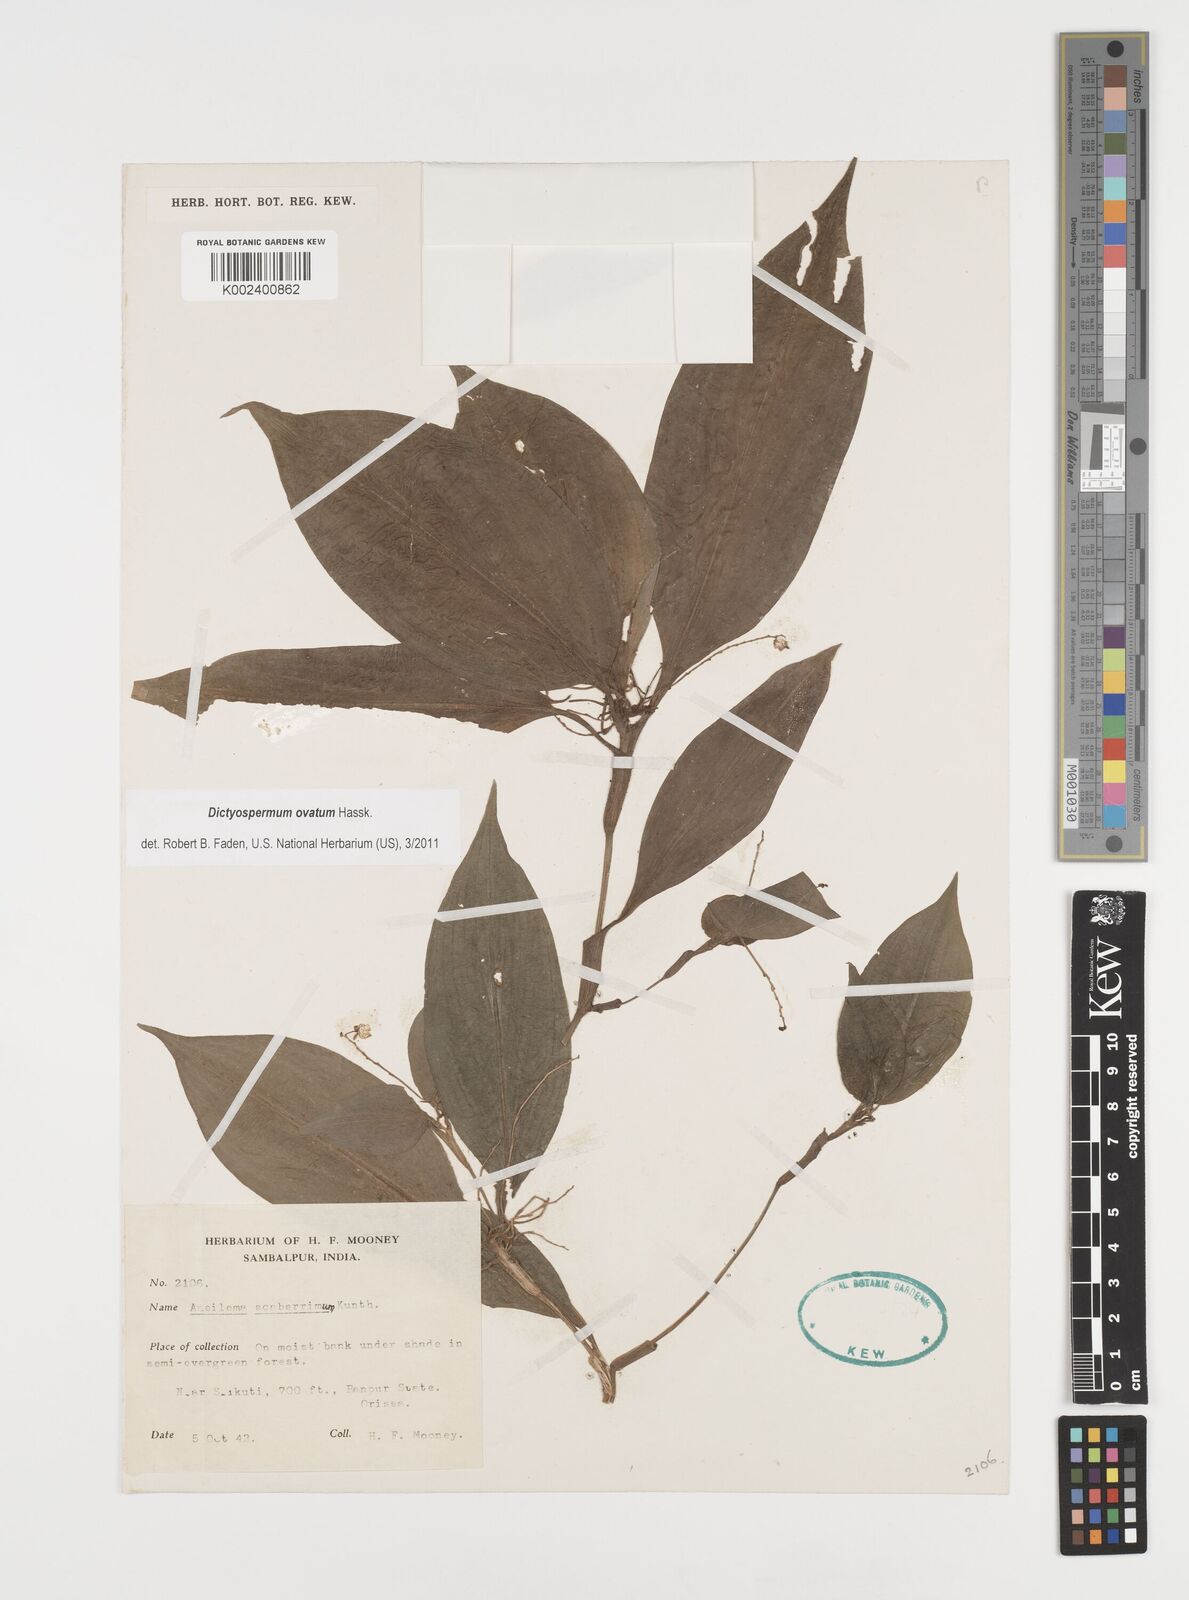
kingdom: Plantae
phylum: Tracheophyta
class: Liliopsida
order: Commelinales
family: Commelinaceae
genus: Dictyospermum
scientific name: Dictyospermum ovatum
